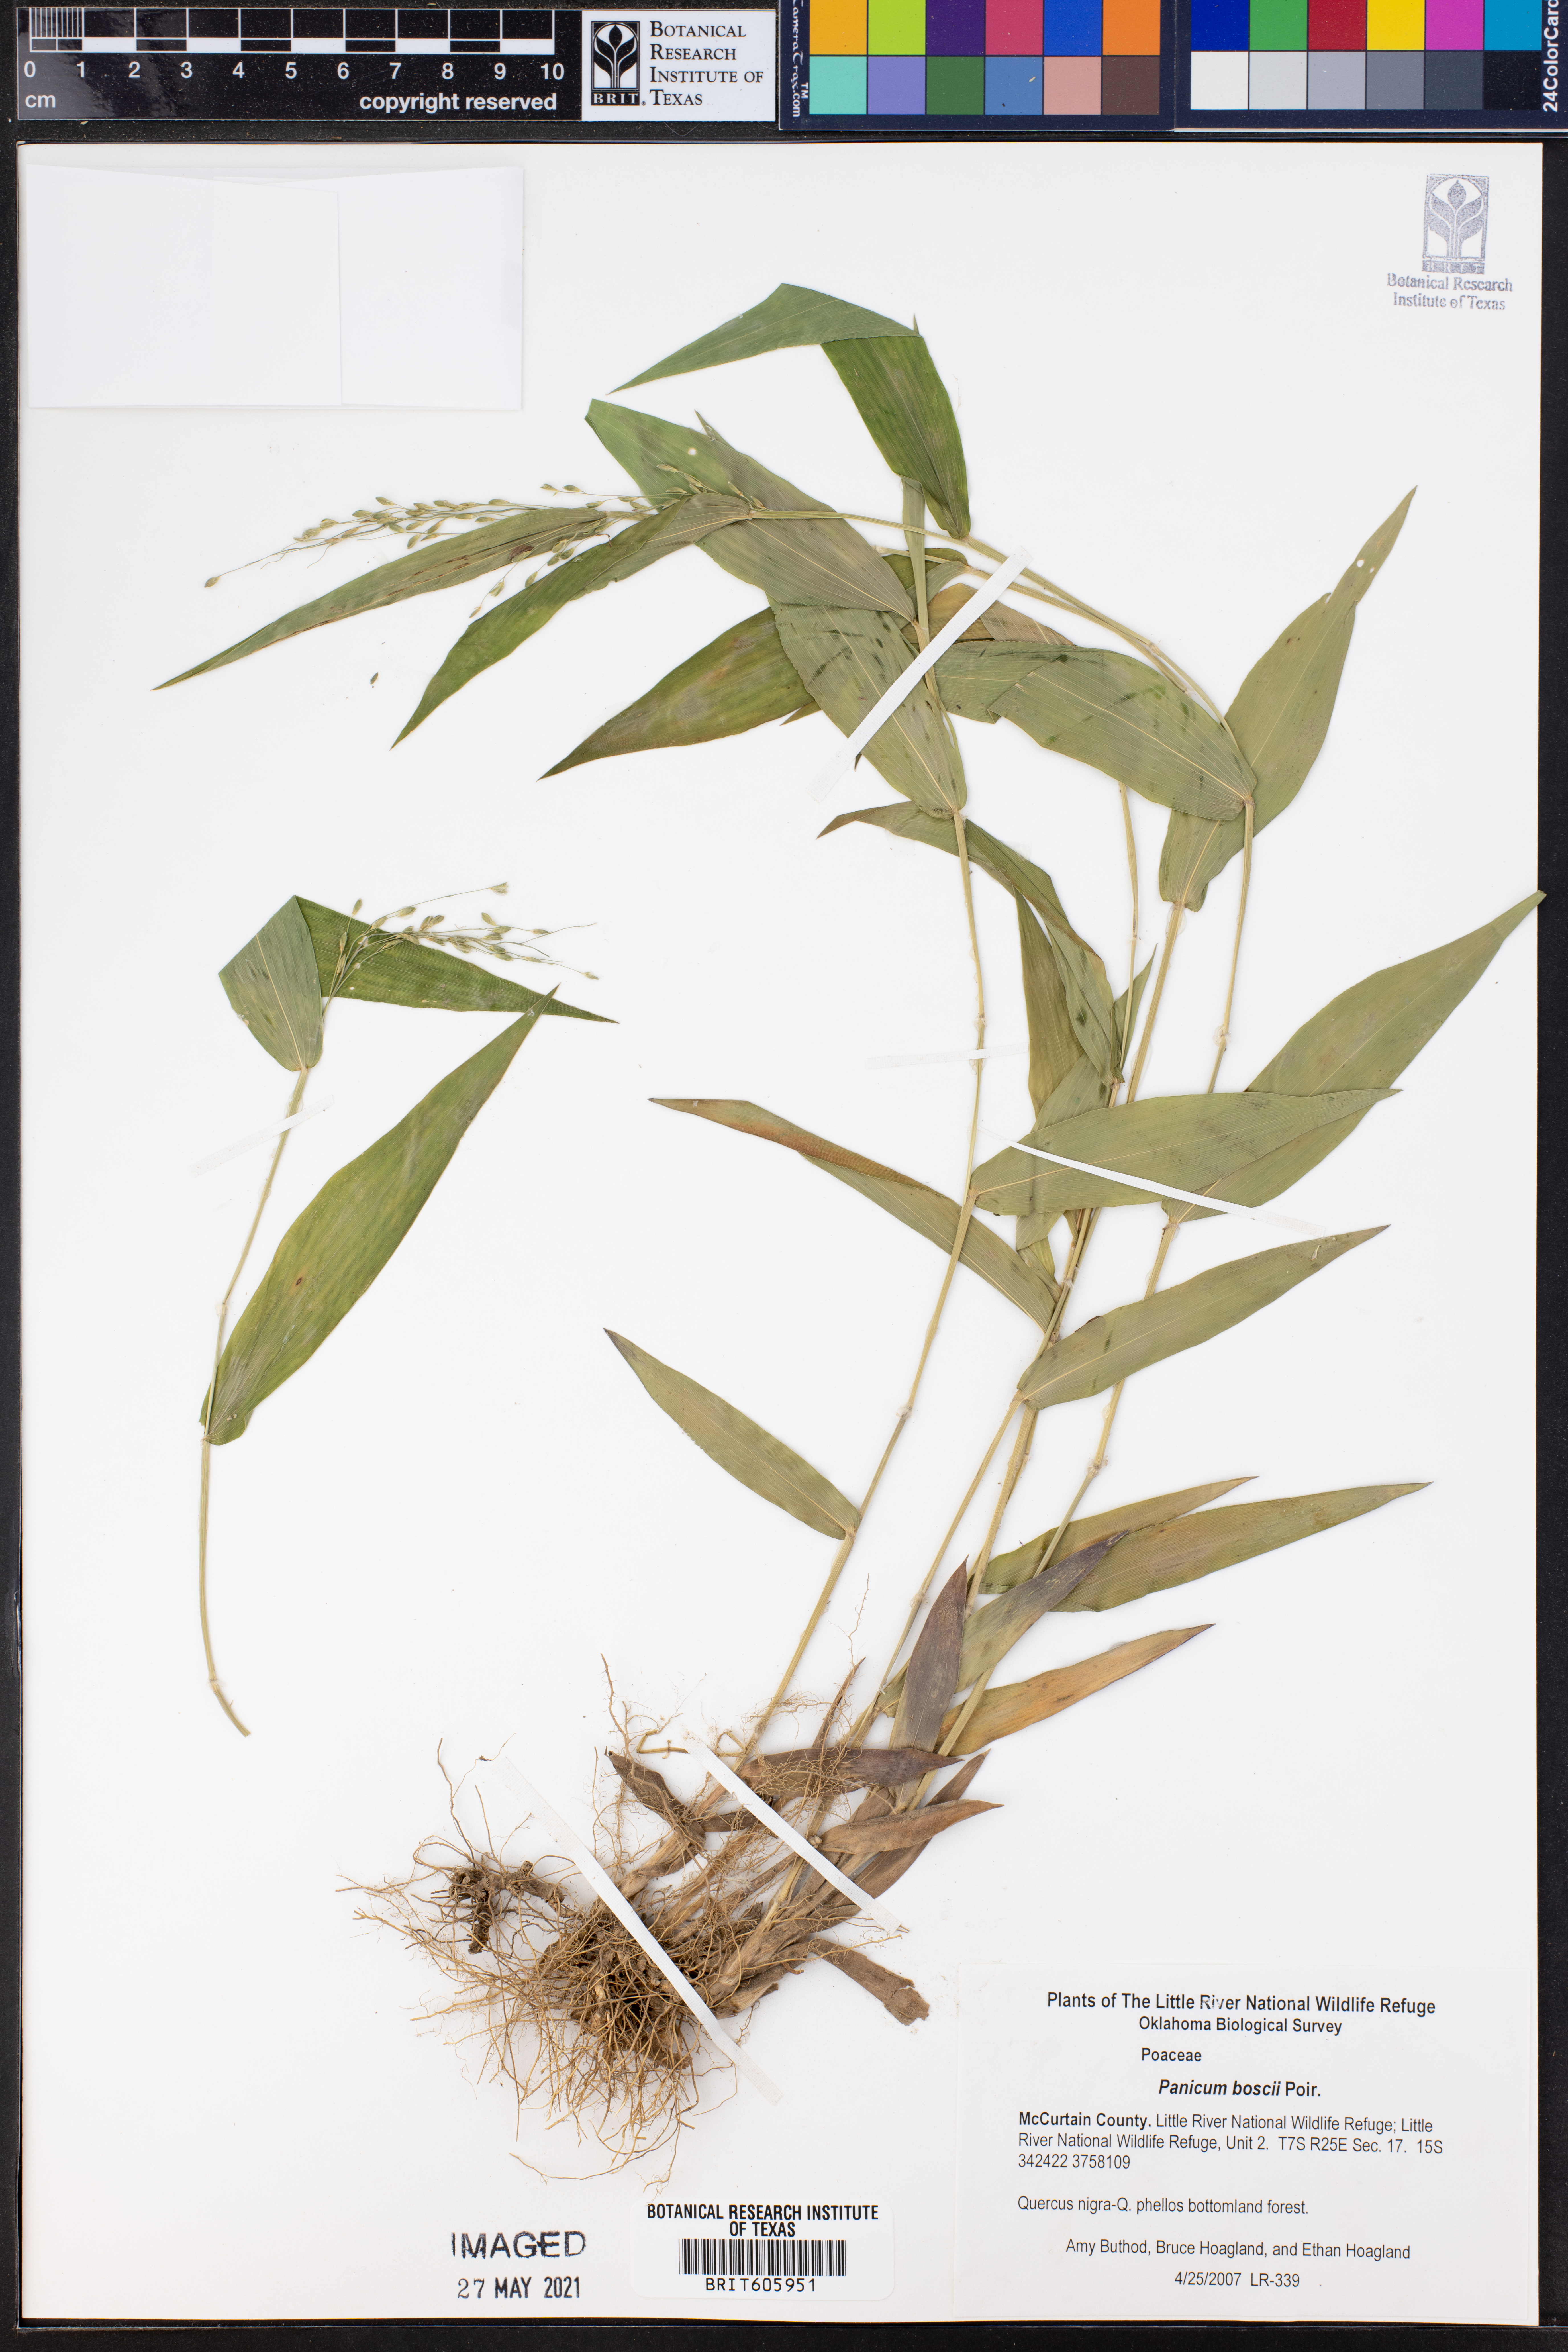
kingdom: Plantae
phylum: Tracheophyta
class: Liliopsida
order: Poales
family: Poaceae
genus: Dichanthelium
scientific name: Dichanthelium boscii
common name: Bosc's panic grass
